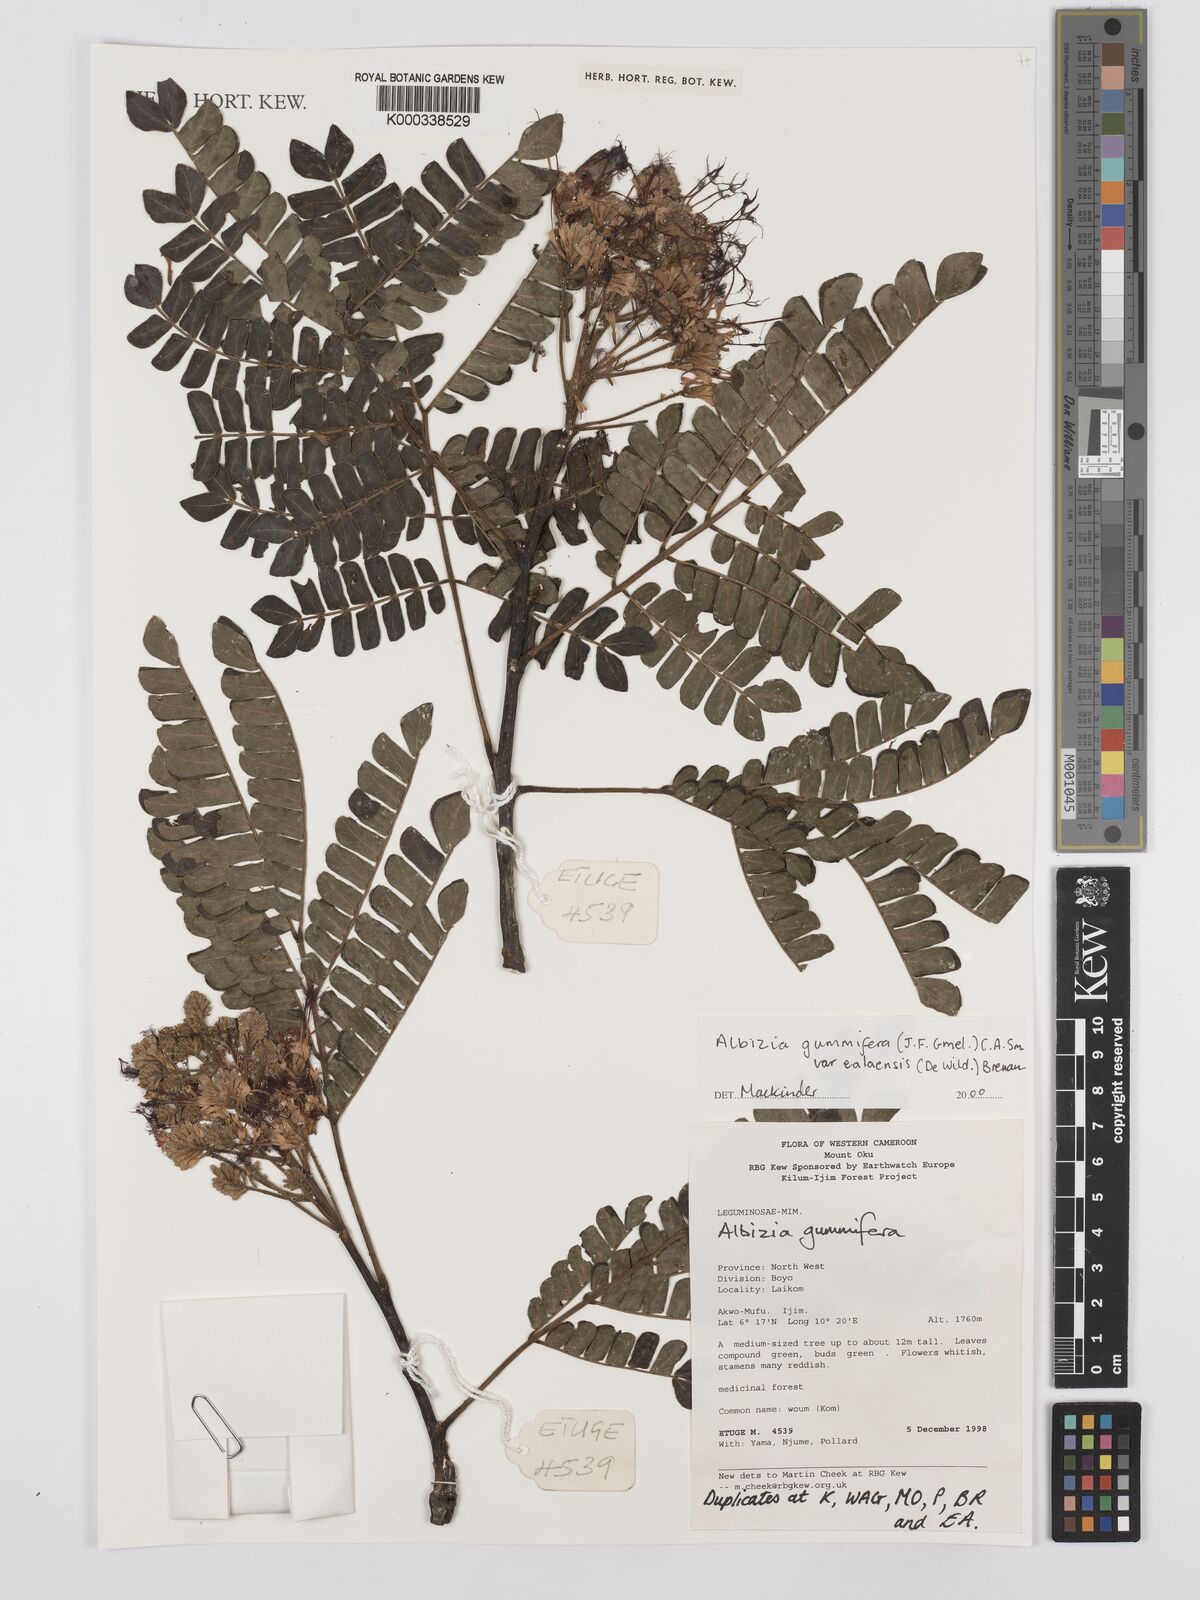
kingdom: Plantae
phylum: Tracheophyta
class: Magnoliopsida
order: Fabales
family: Fabaceae
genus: Albizia
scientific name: Albizia gummifera
